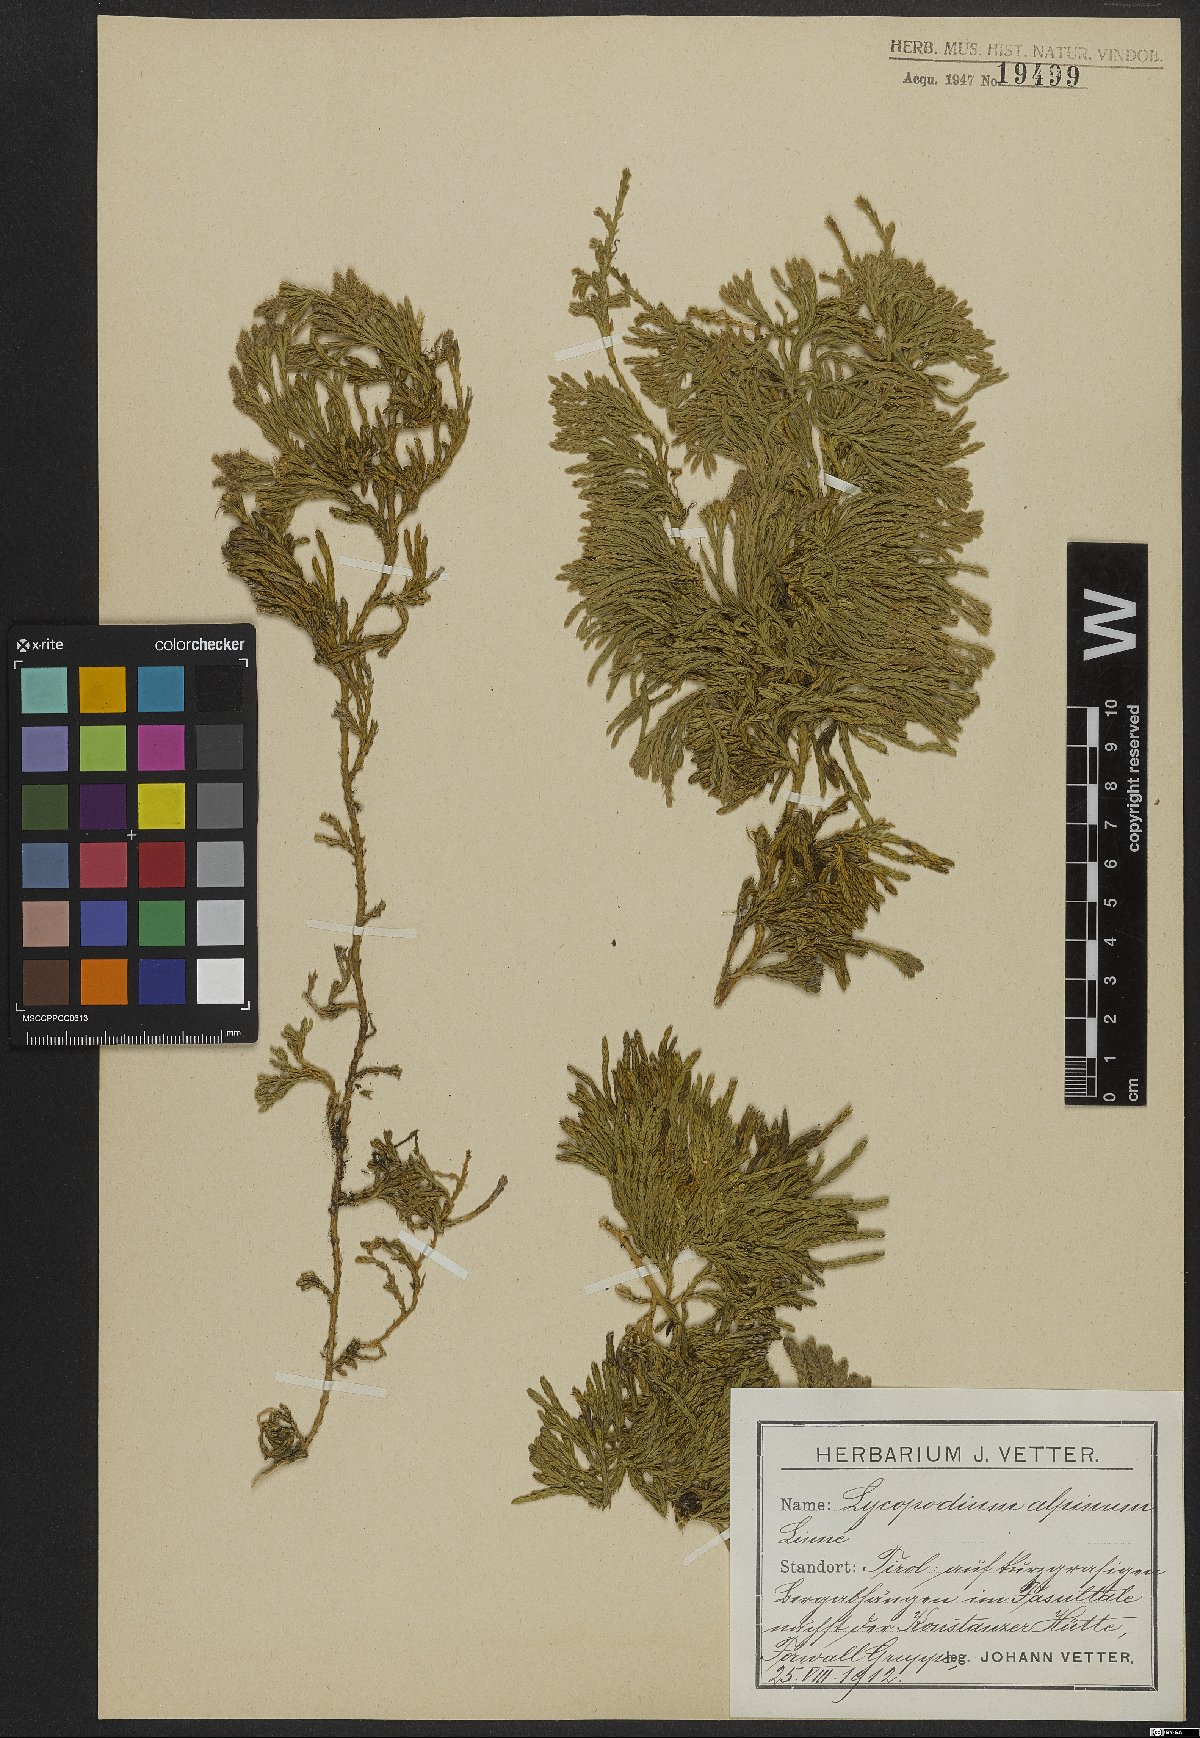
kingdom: Plantae
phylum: Tracheophyta
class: Lycopodiopsida
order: Lycopodiales
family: Lycopodiaceae
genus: Diphasiastrum
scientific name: Diphasiastrum alpinum
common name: Alpine clubmoss
